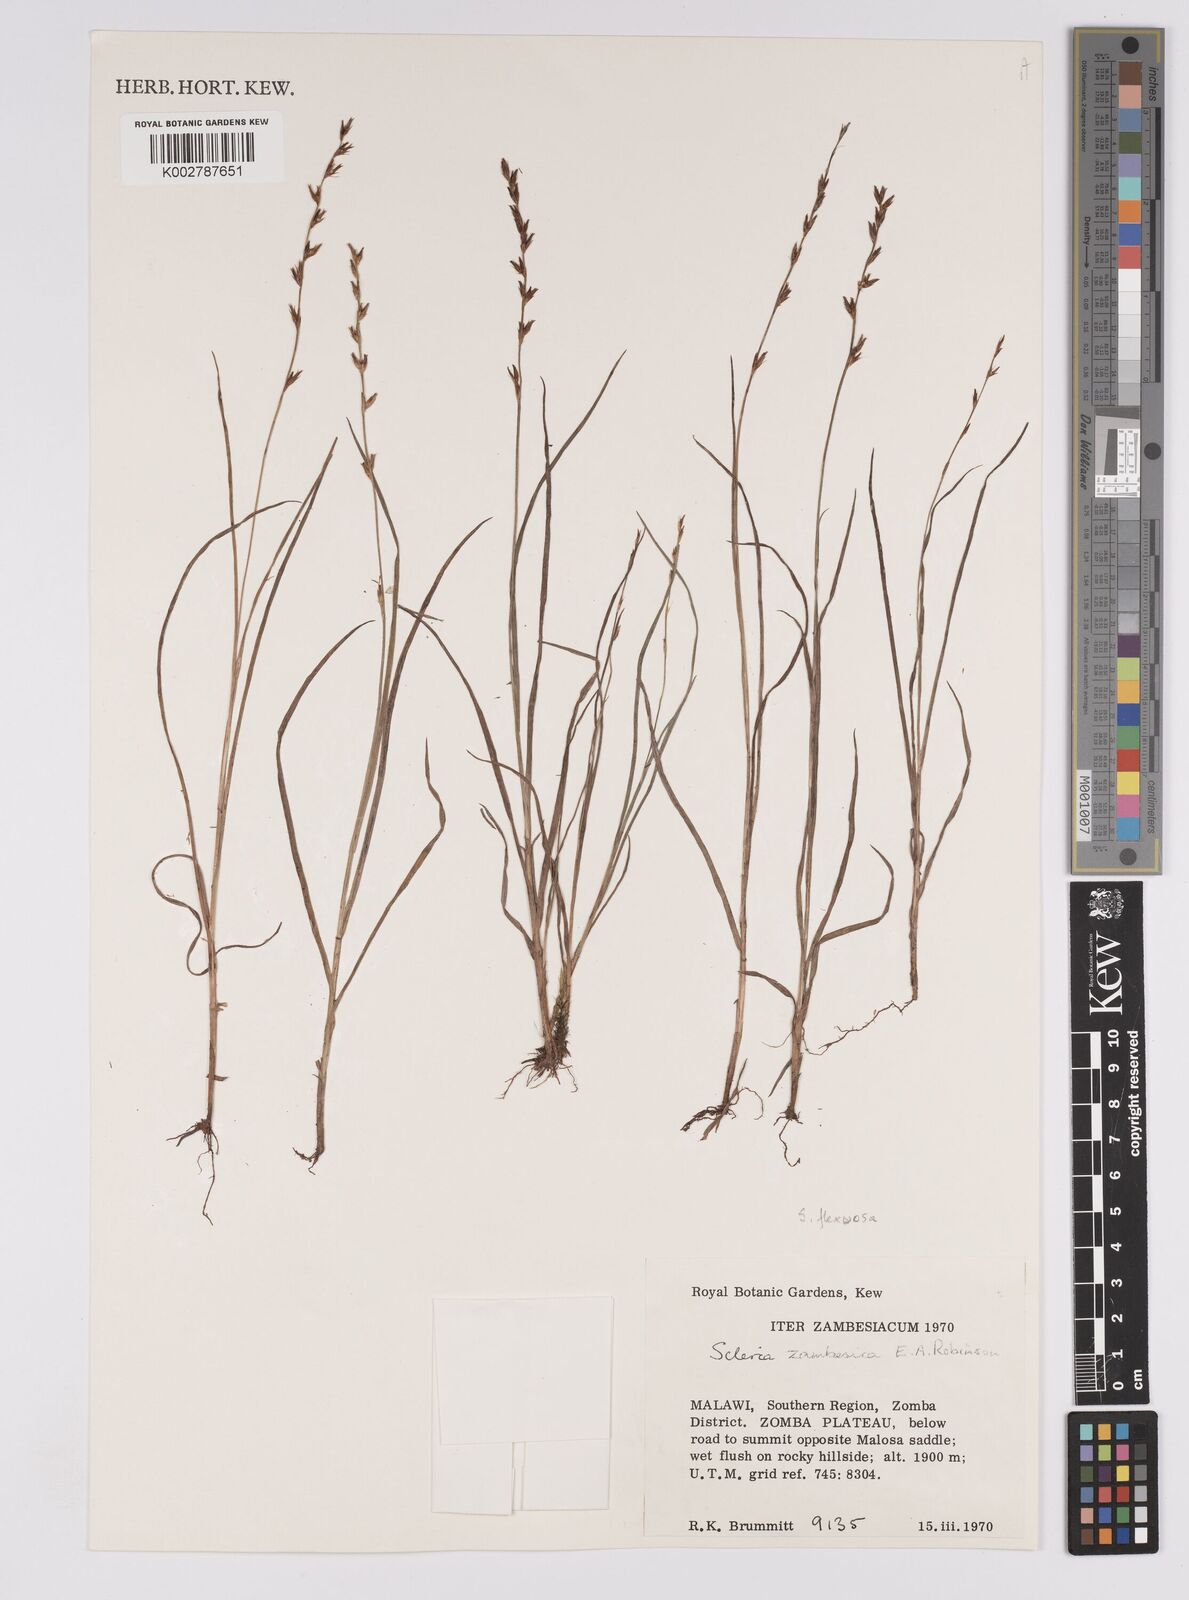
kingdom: Plantae
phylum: Tracheophyta
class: Liliopsida
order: Poales
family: Cyperaceae
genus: Scleria
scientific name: Scleria zambesica
